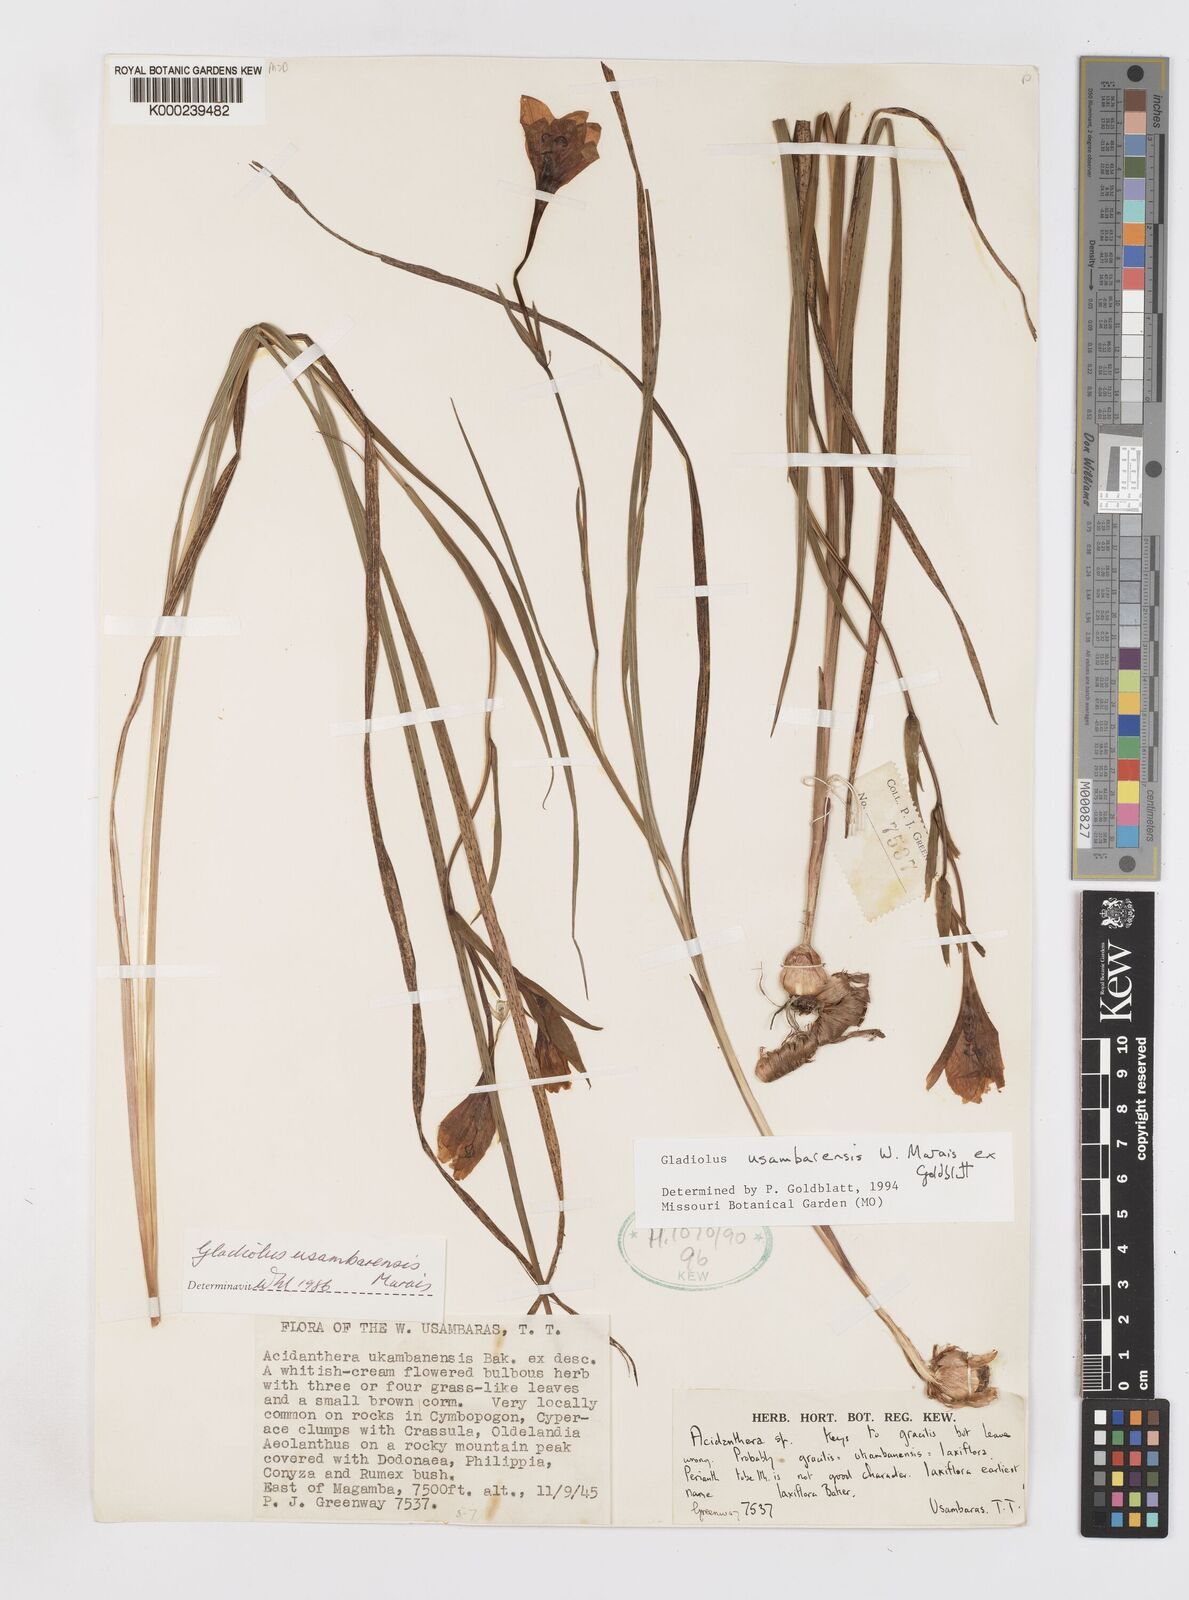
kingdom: Plantae
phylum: Tracheophyta
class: Liliopsida
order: Asparagales
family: Iridaceae
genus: Gladiolus
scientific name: Gladiolus usambarensis
